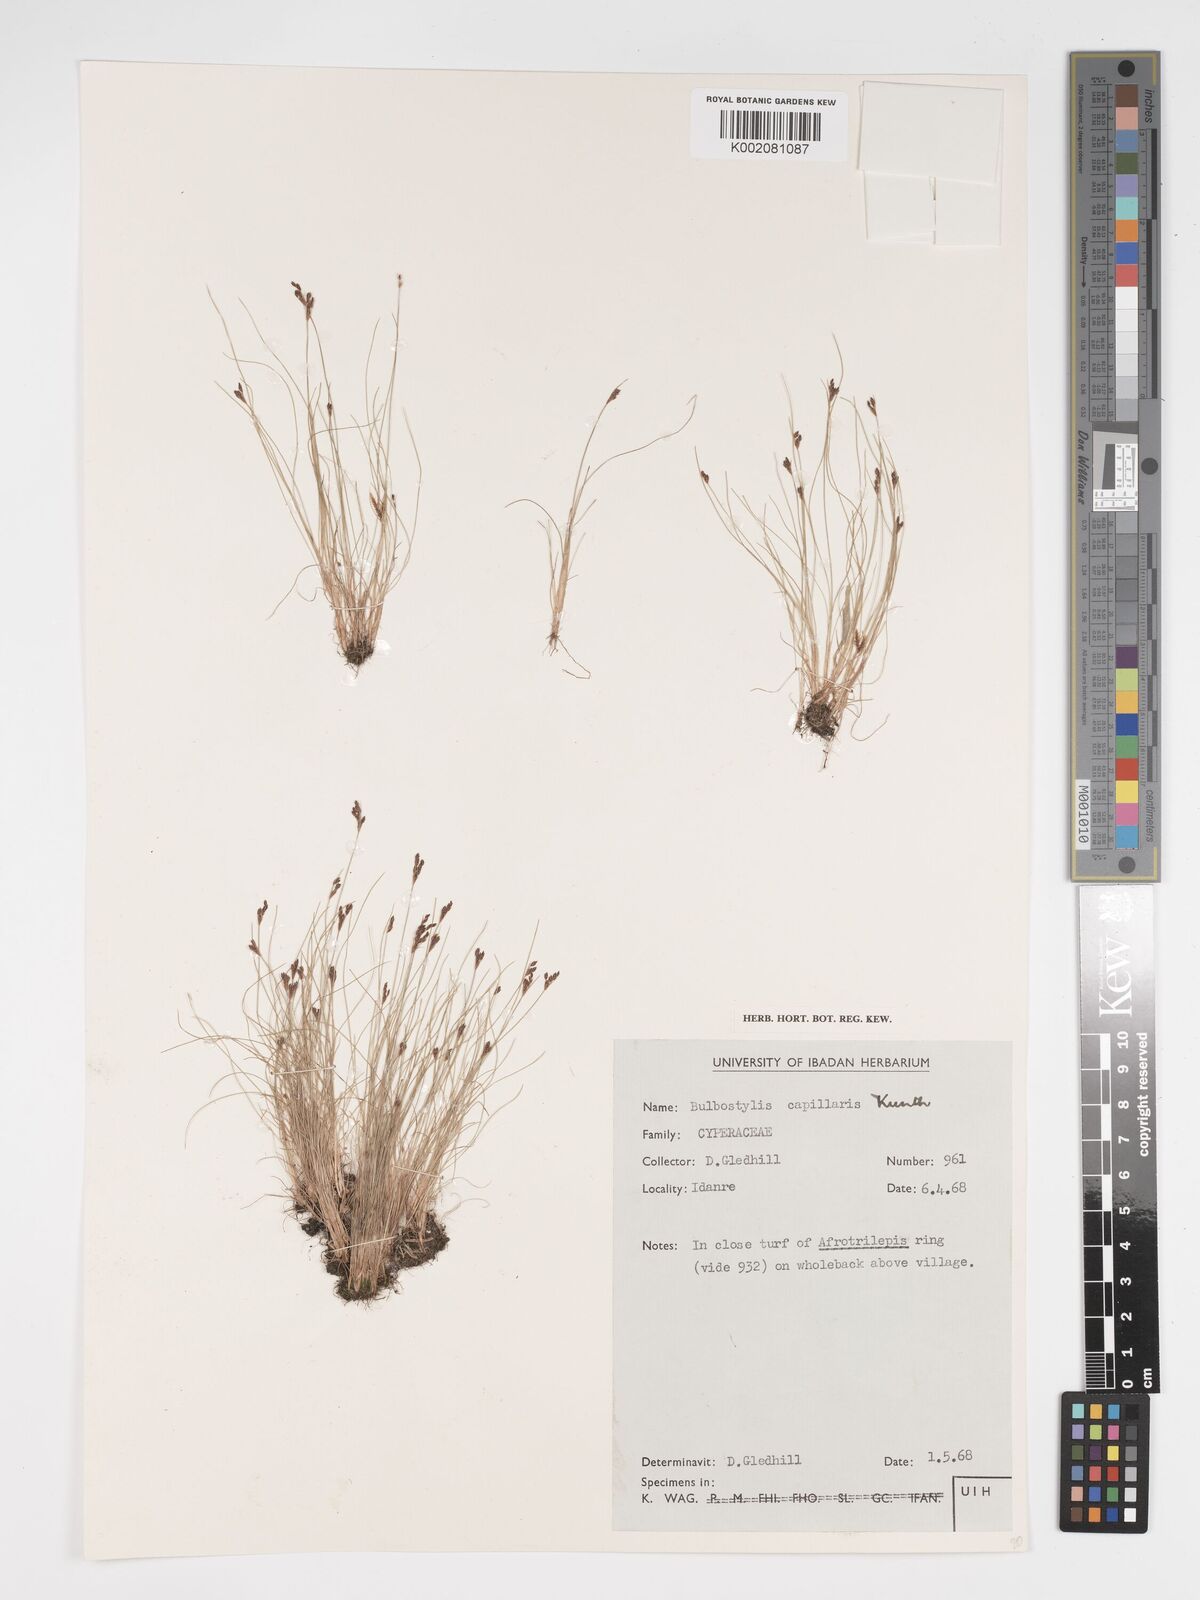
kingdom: Plantae
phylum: Tracheophyta
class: Liliopsida
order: Poales
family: Cyperaceae
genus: Bulbostylis
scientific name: Bulbostylis densa
